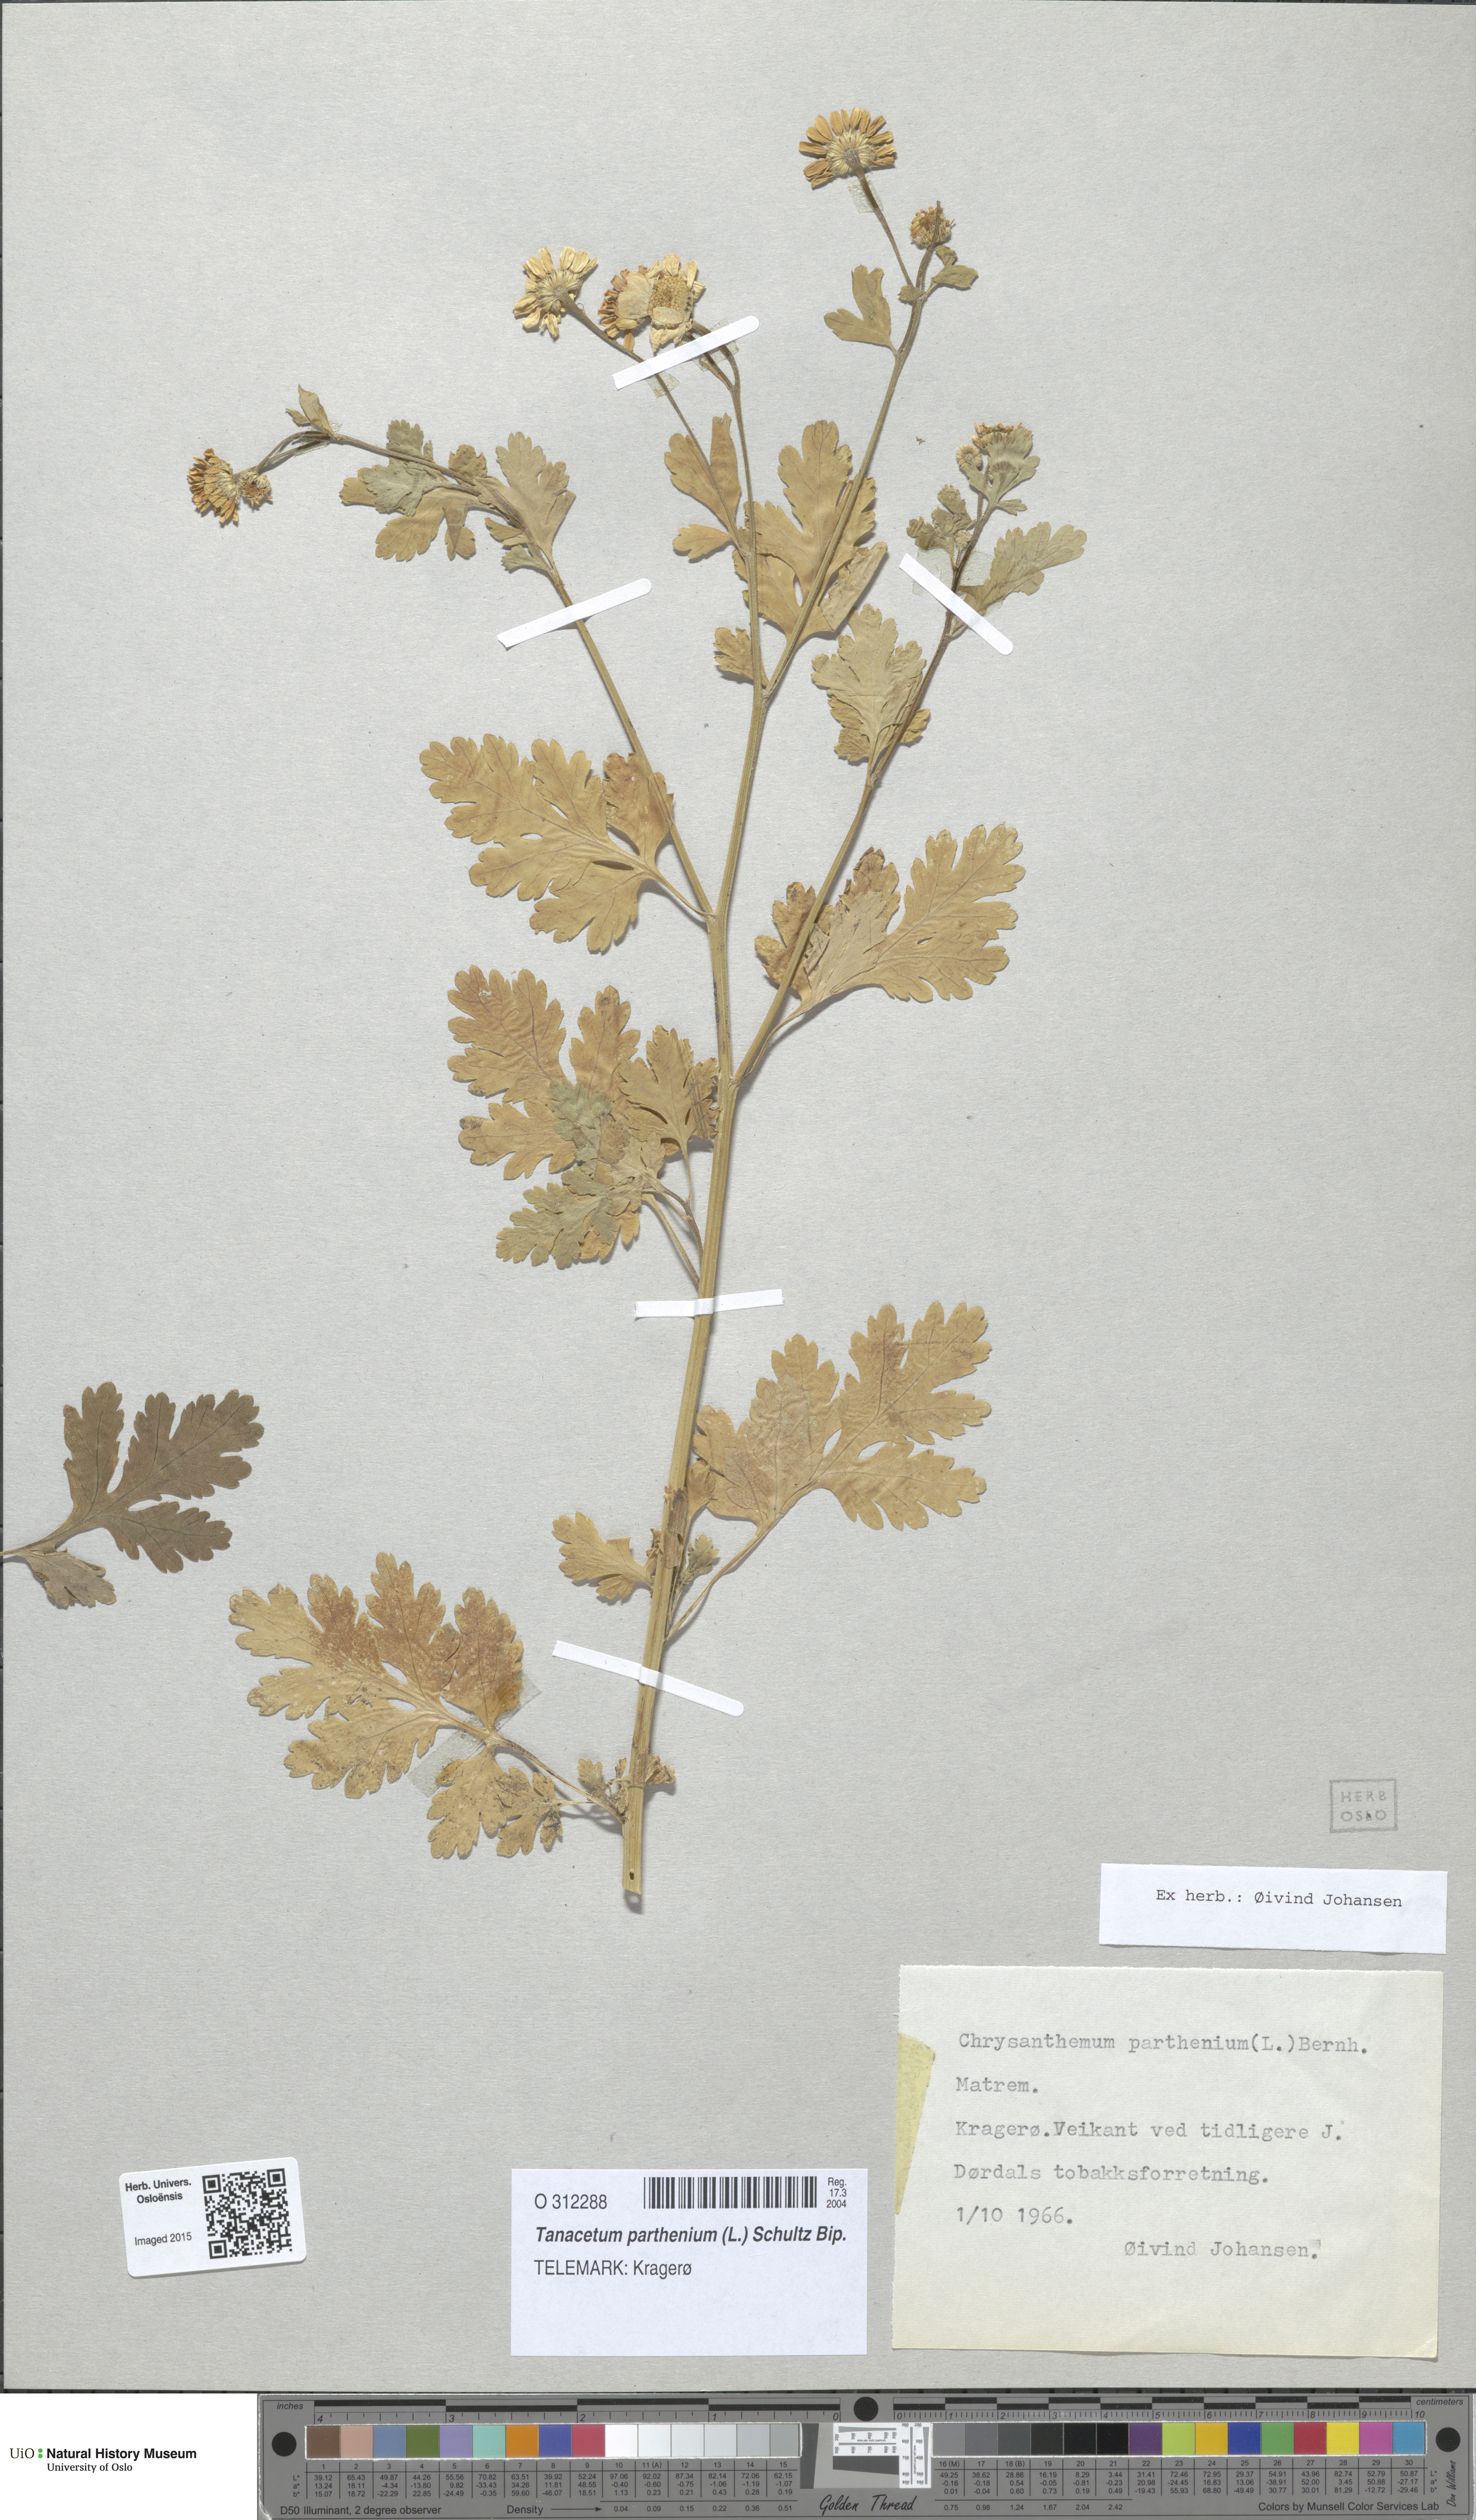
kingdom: Plantae
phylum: Tracheophyta
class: Magnoliopsida
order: Asterales
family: Asteraceae
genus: Tanacetum
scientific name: Tanacetum parthenium
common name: Feverfew
